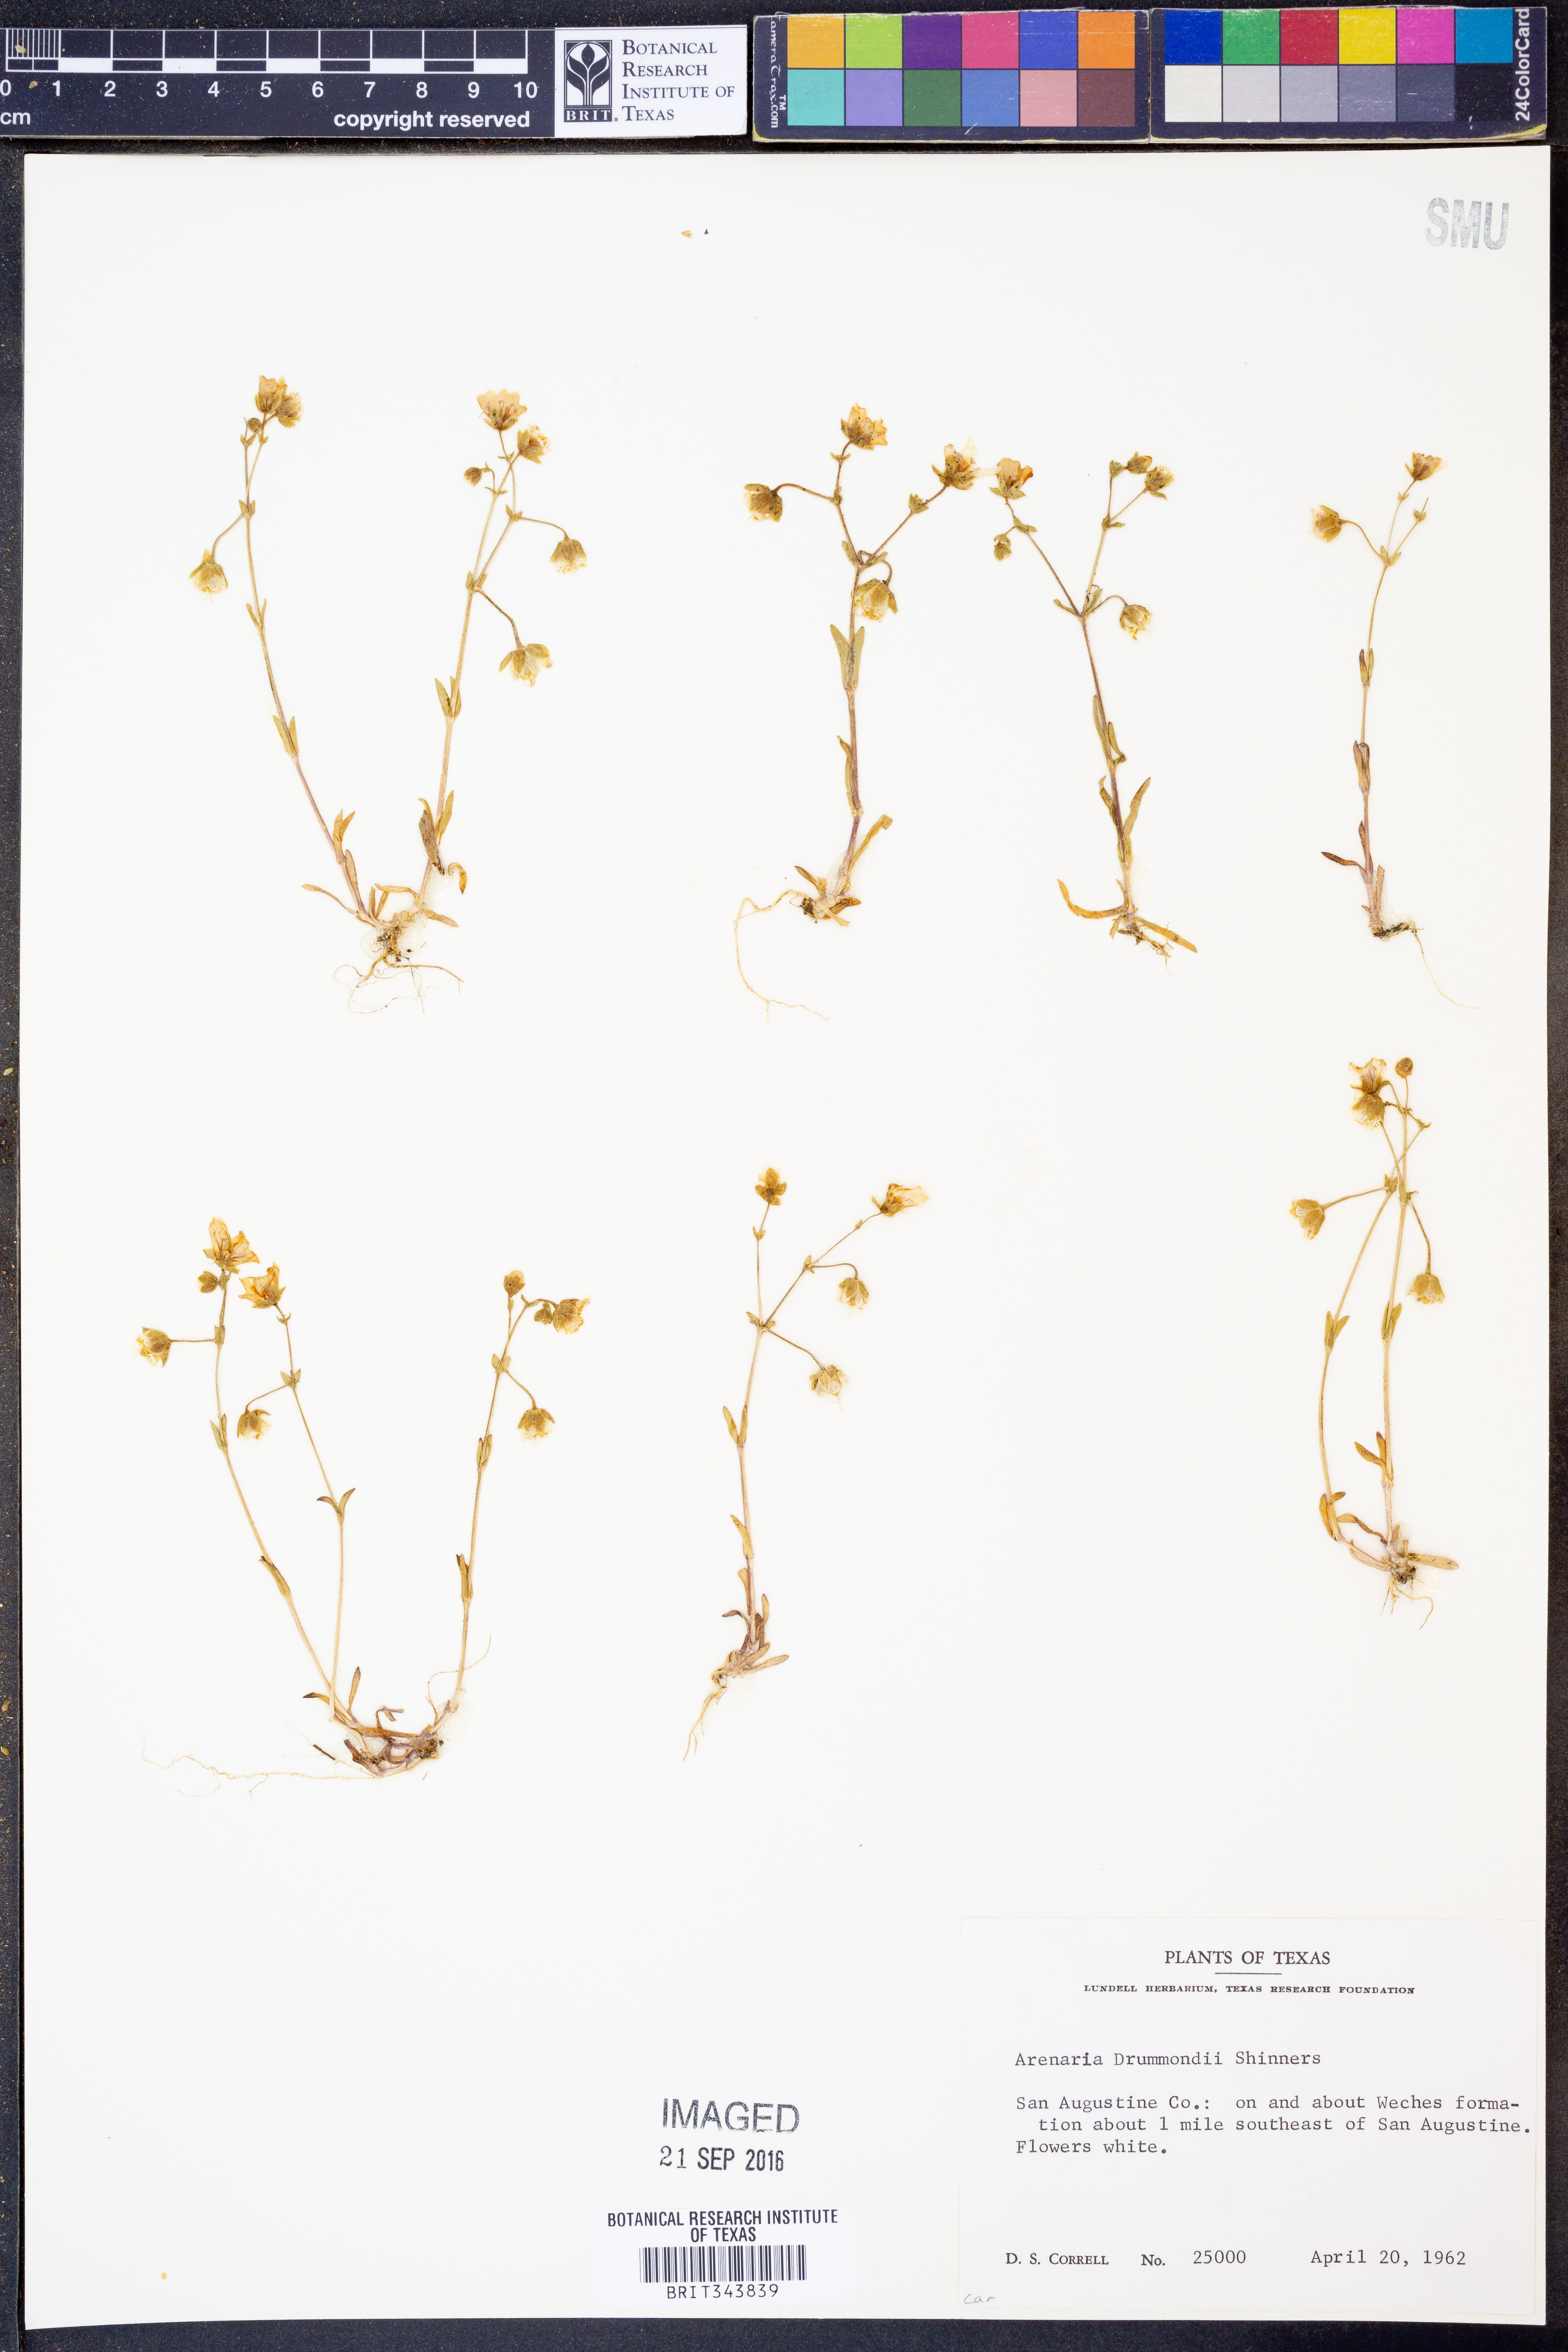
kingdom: Plantae
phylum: Tracheophyta
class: Magnoliopsida
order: Caryophyllales
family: Caryophyllaceae
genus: Geocarpon
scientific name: Geocarpon nuttallii
